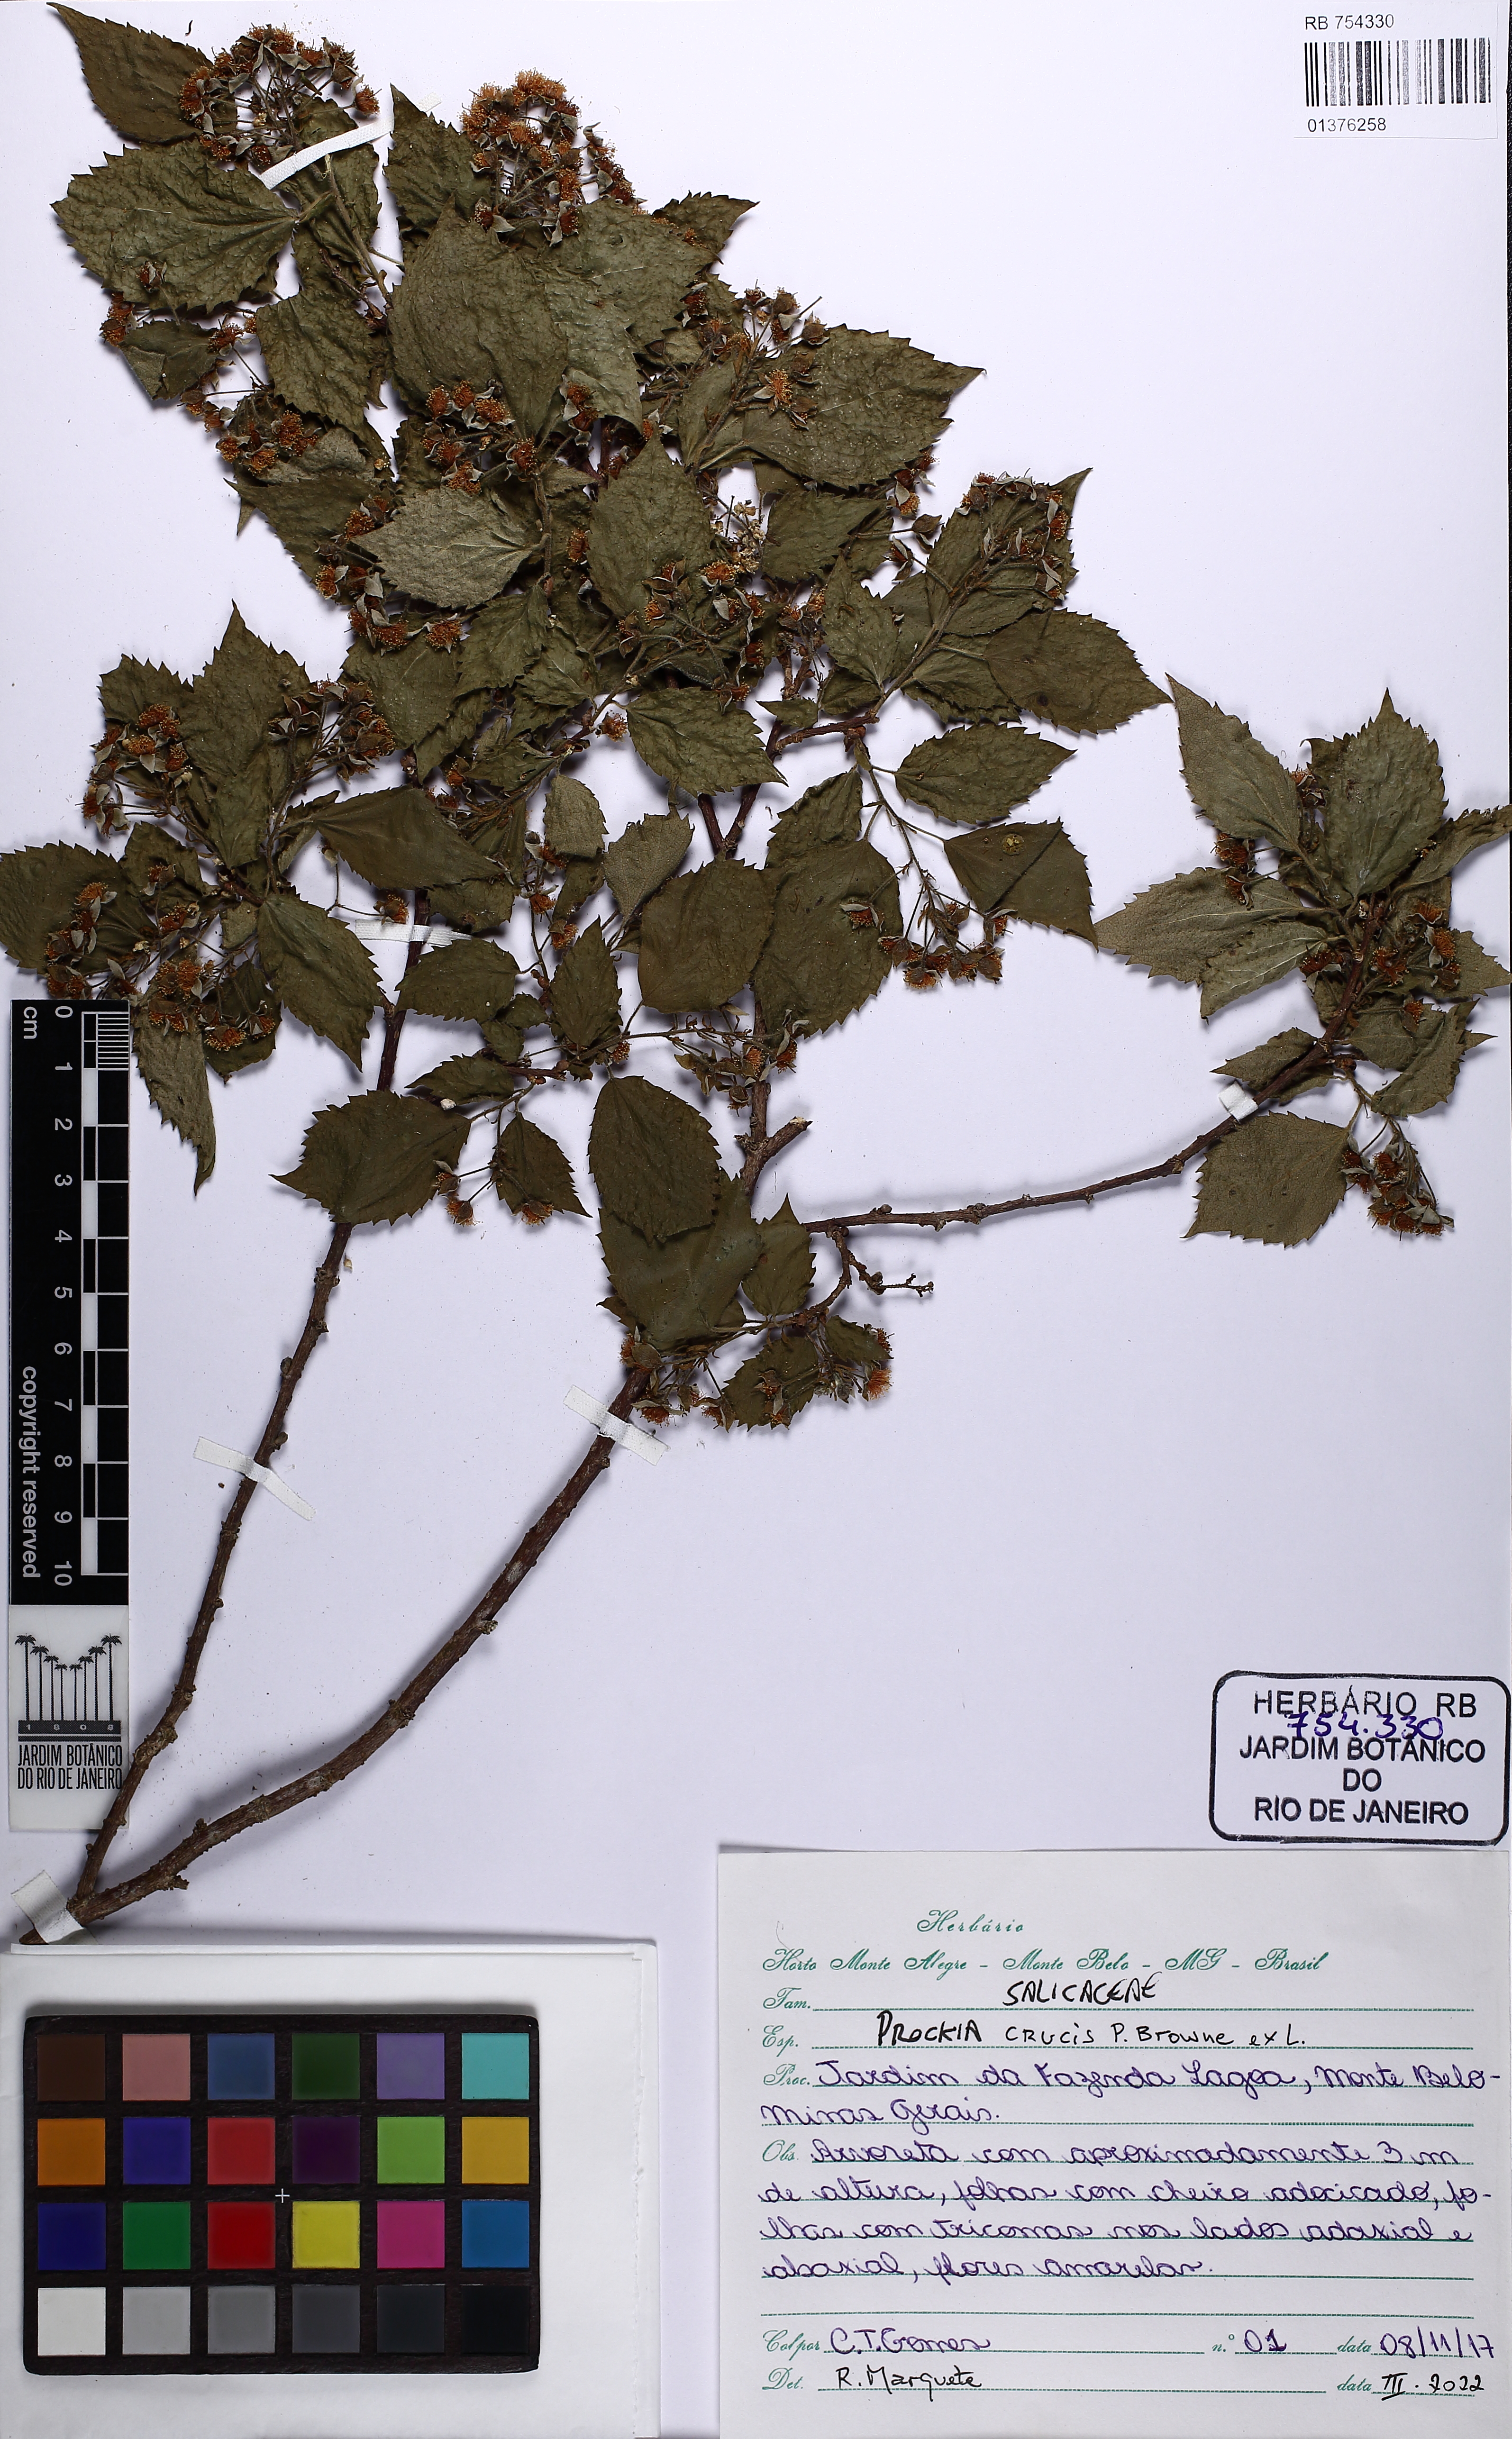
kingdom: Plantae
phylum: Tracheophyta
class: Magnoliopsida
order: Malpighiales
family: Salicaceae
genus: Prockia
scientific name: Prockia crucis
